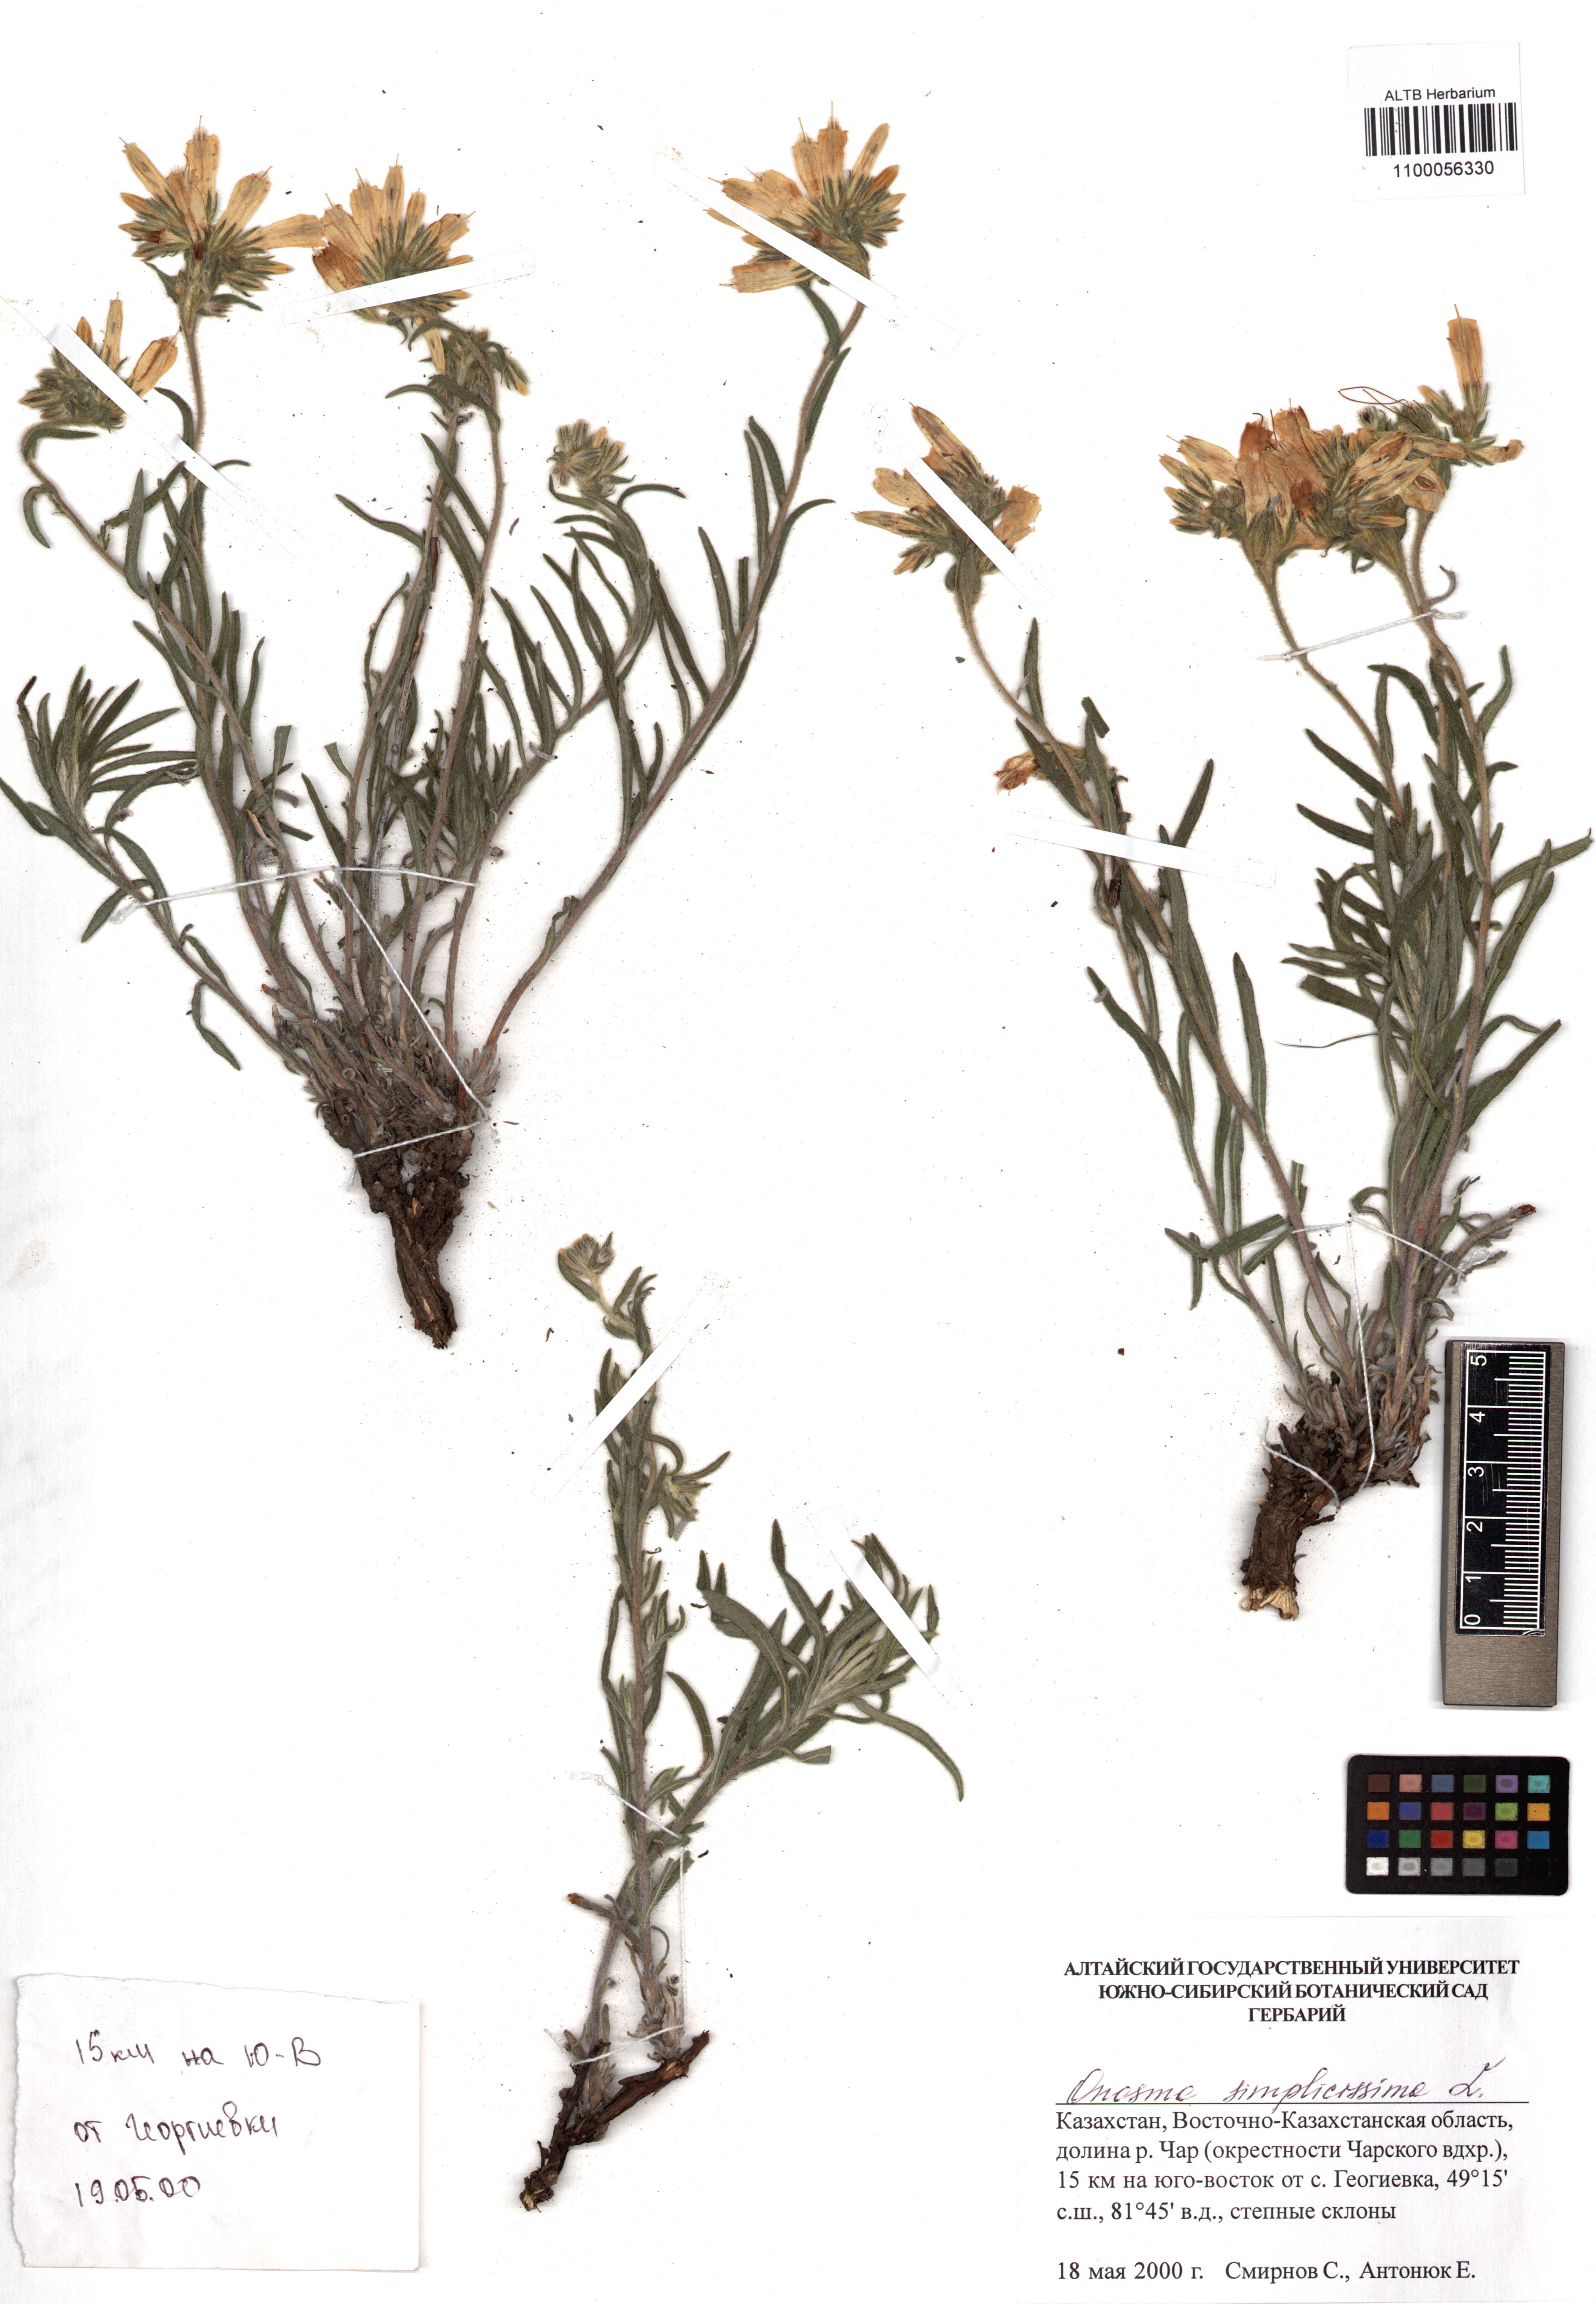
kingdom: Plantae
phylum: Tracheophyta
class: Magnoliopsida
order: Boraginales
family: Boraginaceae
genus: Onosma
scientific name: Onosma simplicissima
